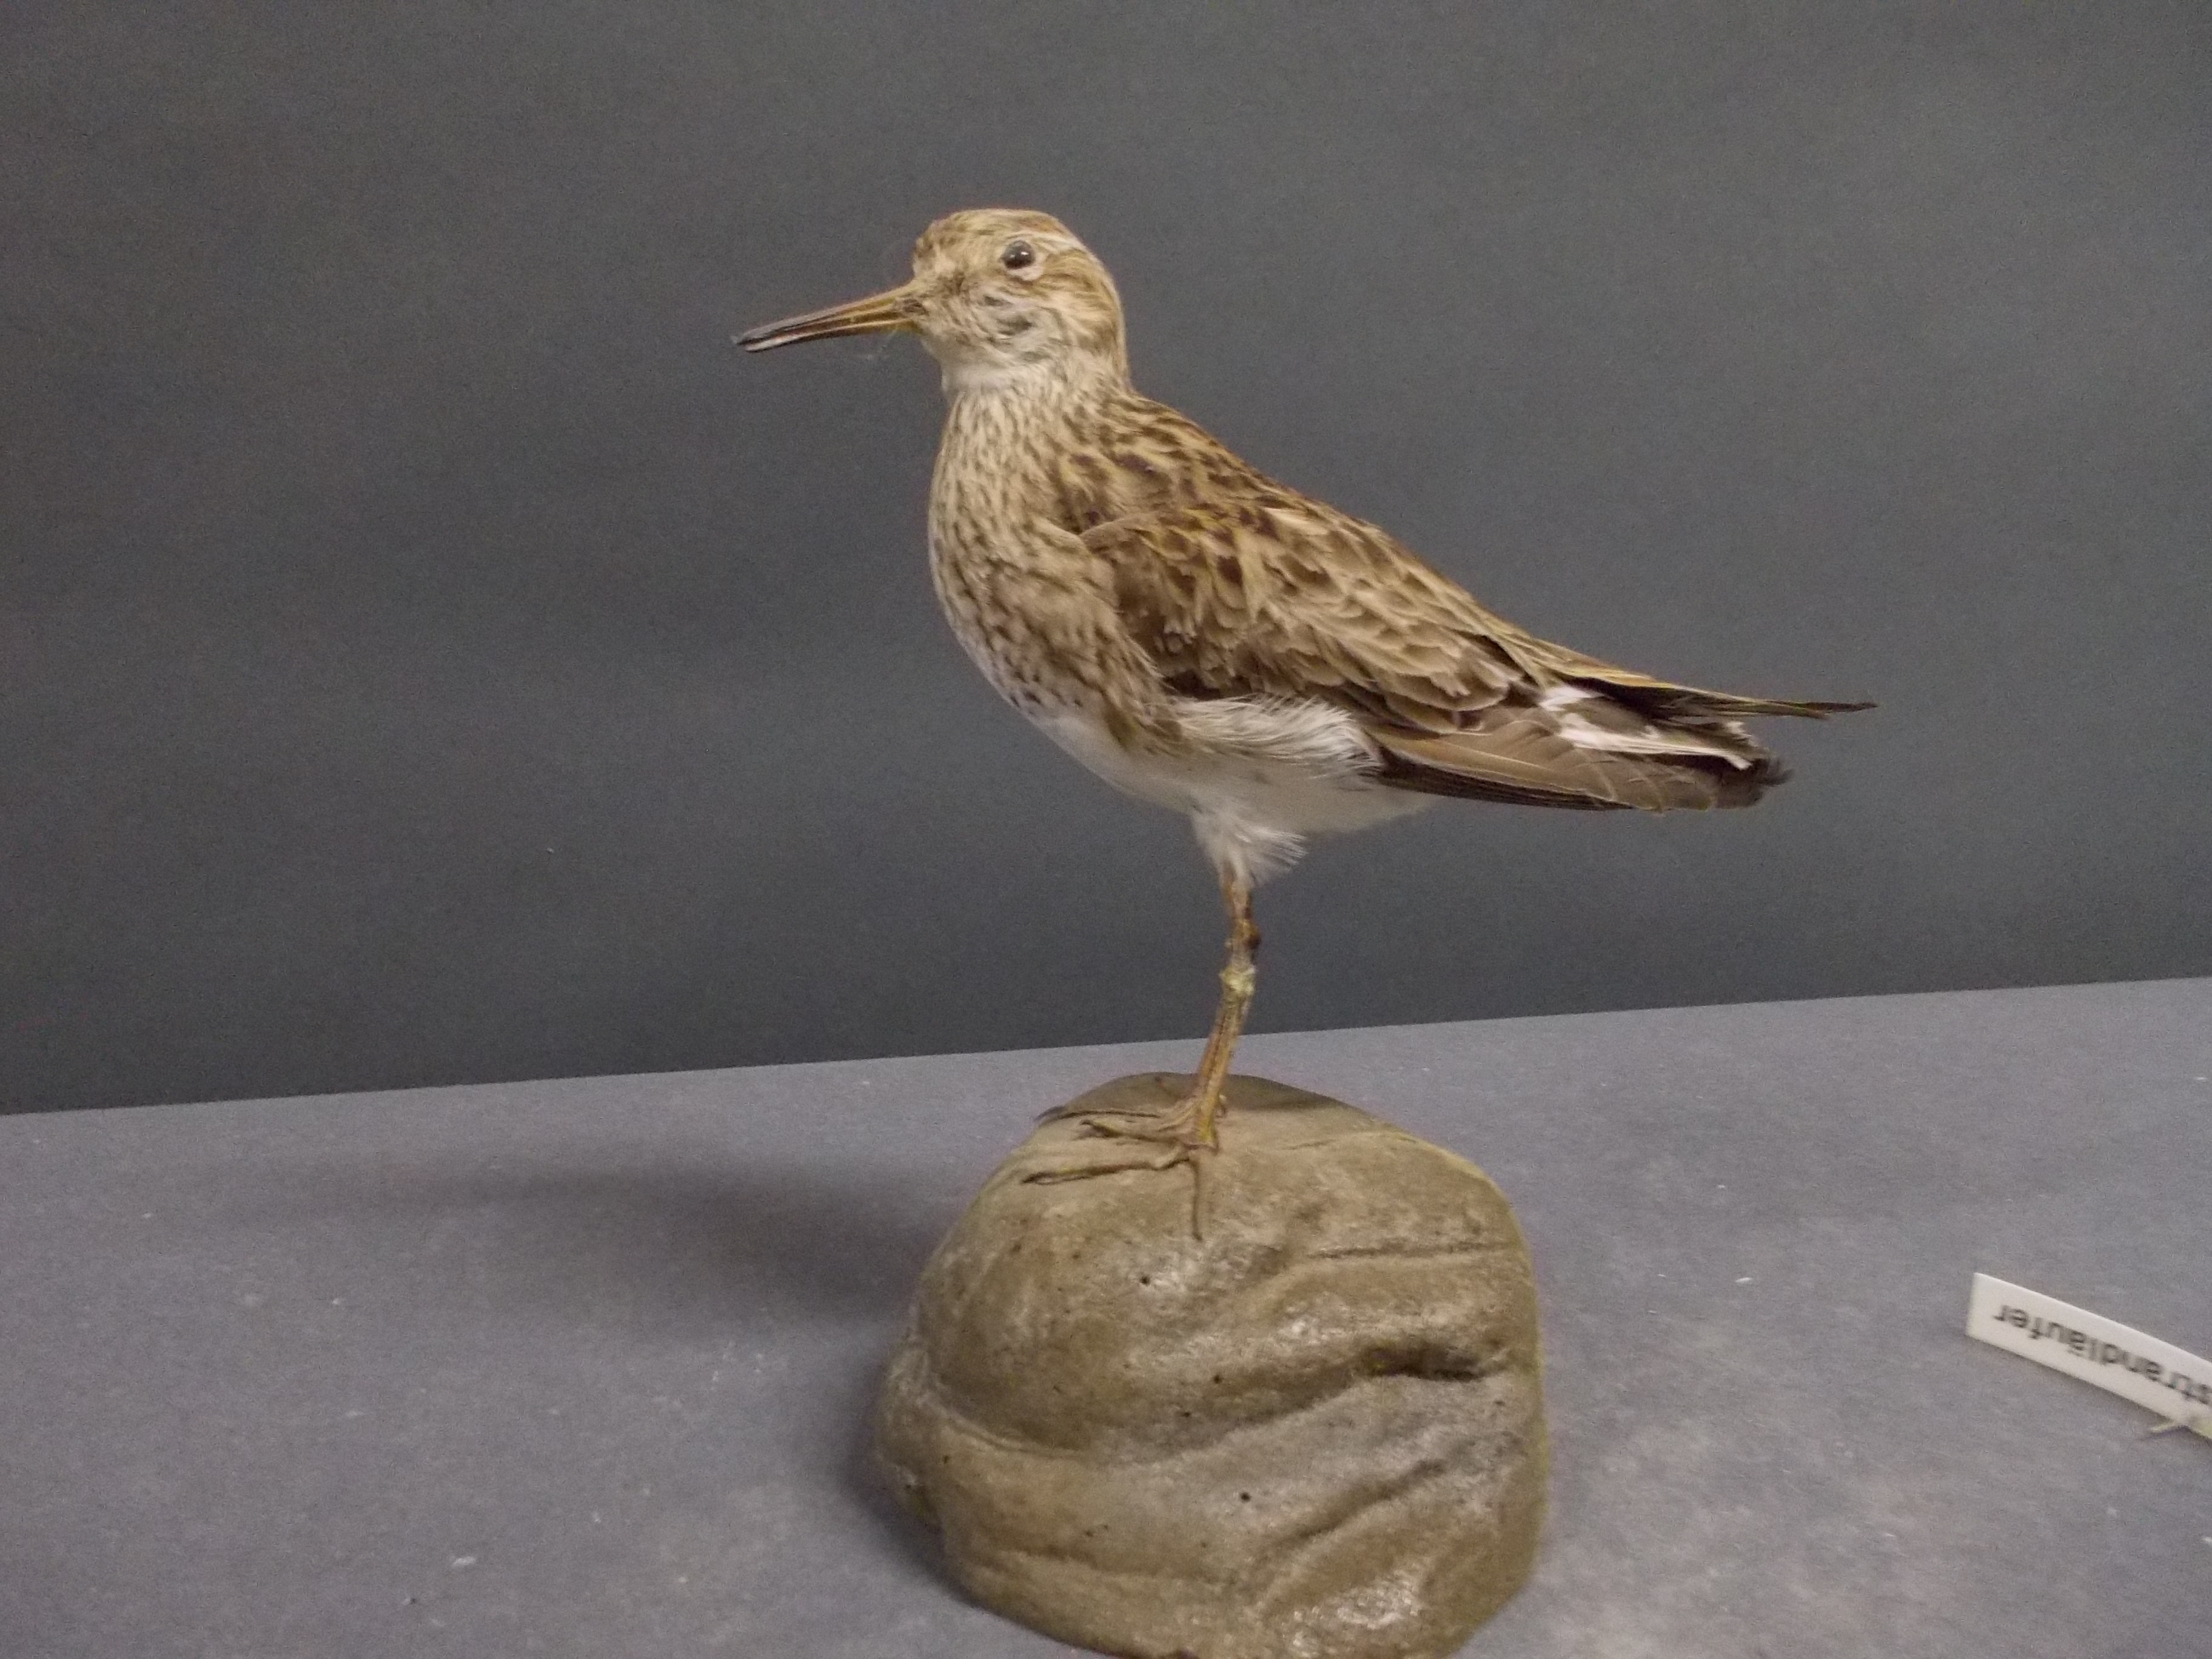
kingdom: Animalia
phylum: Chordata
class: Aves
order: Charadriiformes
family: Scolopacidae
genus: Calidris
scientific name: Calidris melanotos
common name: Pectoral sandpiper
